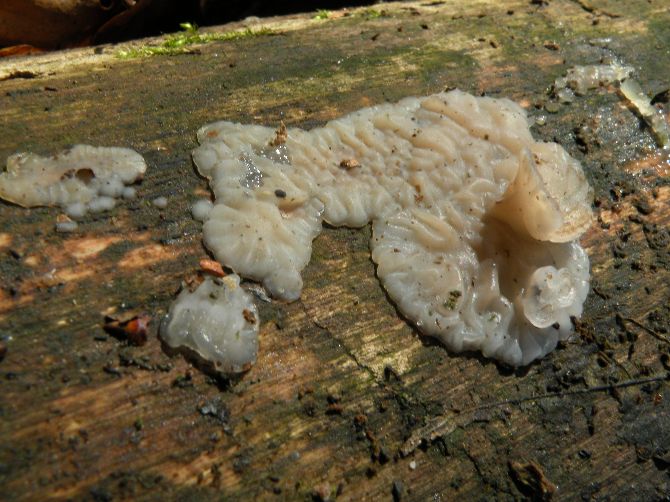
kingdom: Fungi
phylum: Basidiomycota
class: Agaricomycetes
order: Auriculariales
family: Auriculariaceae
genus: Exidia
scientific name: Exidia thuretiana
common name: hvidlig bævretop
